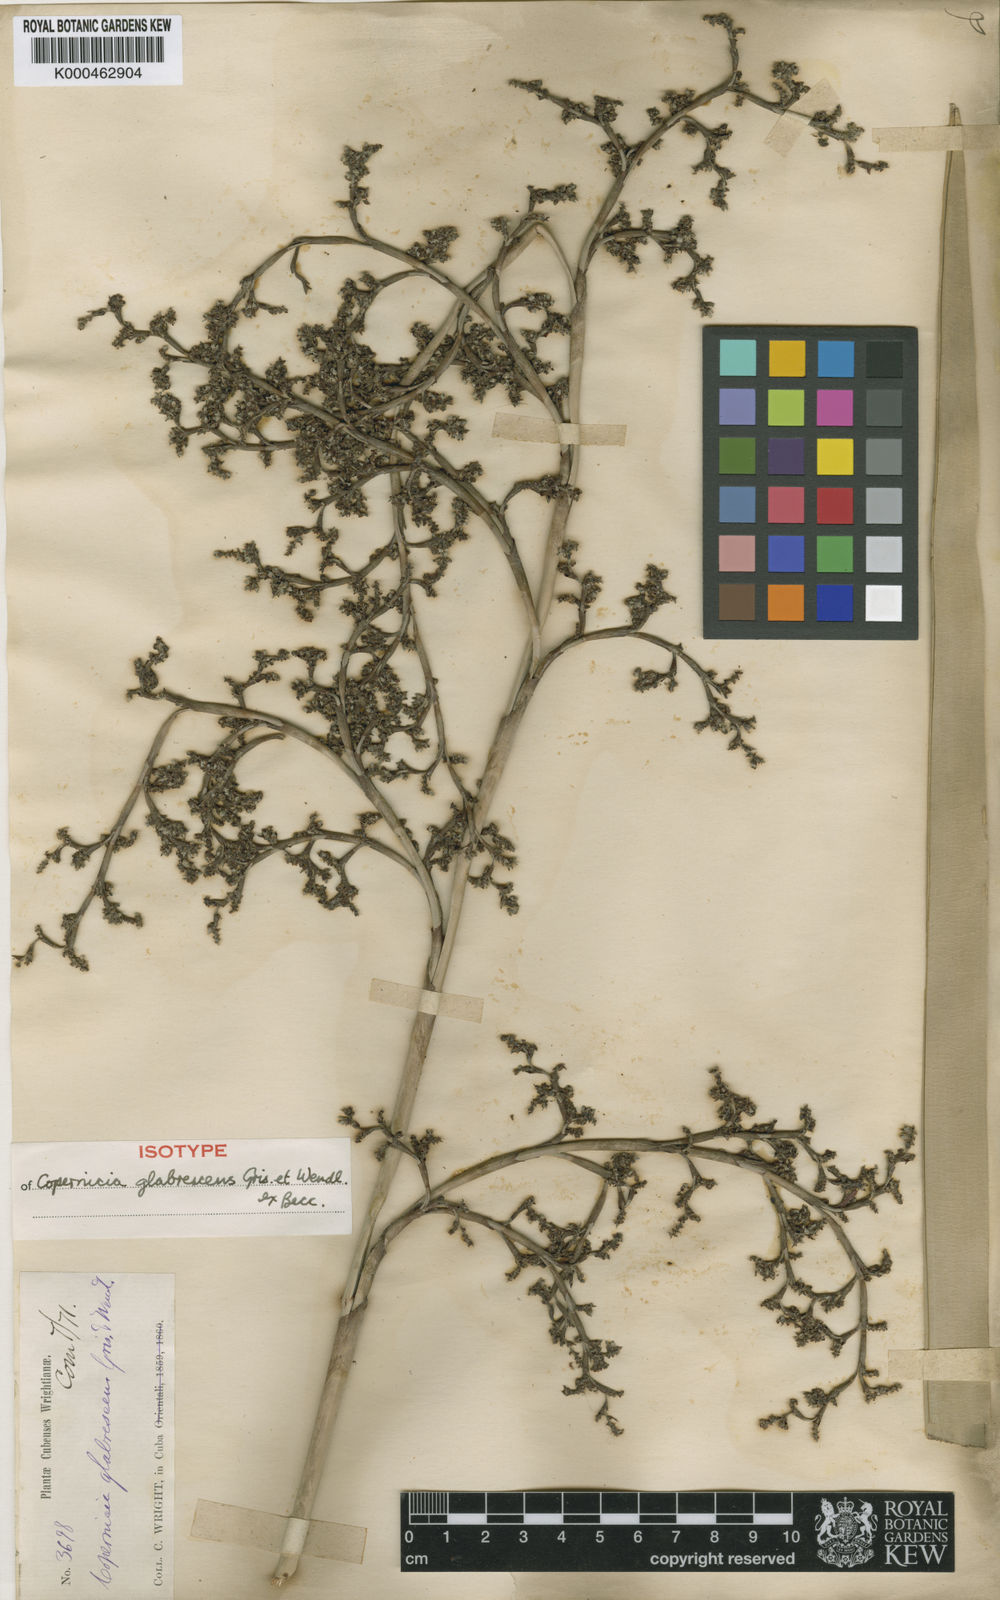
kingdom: Plantae
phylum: Tracheophyta
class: Liliopsida
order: Arecales
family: Arecaceae
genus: Copernicia
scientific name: Copernicia glabrescens
